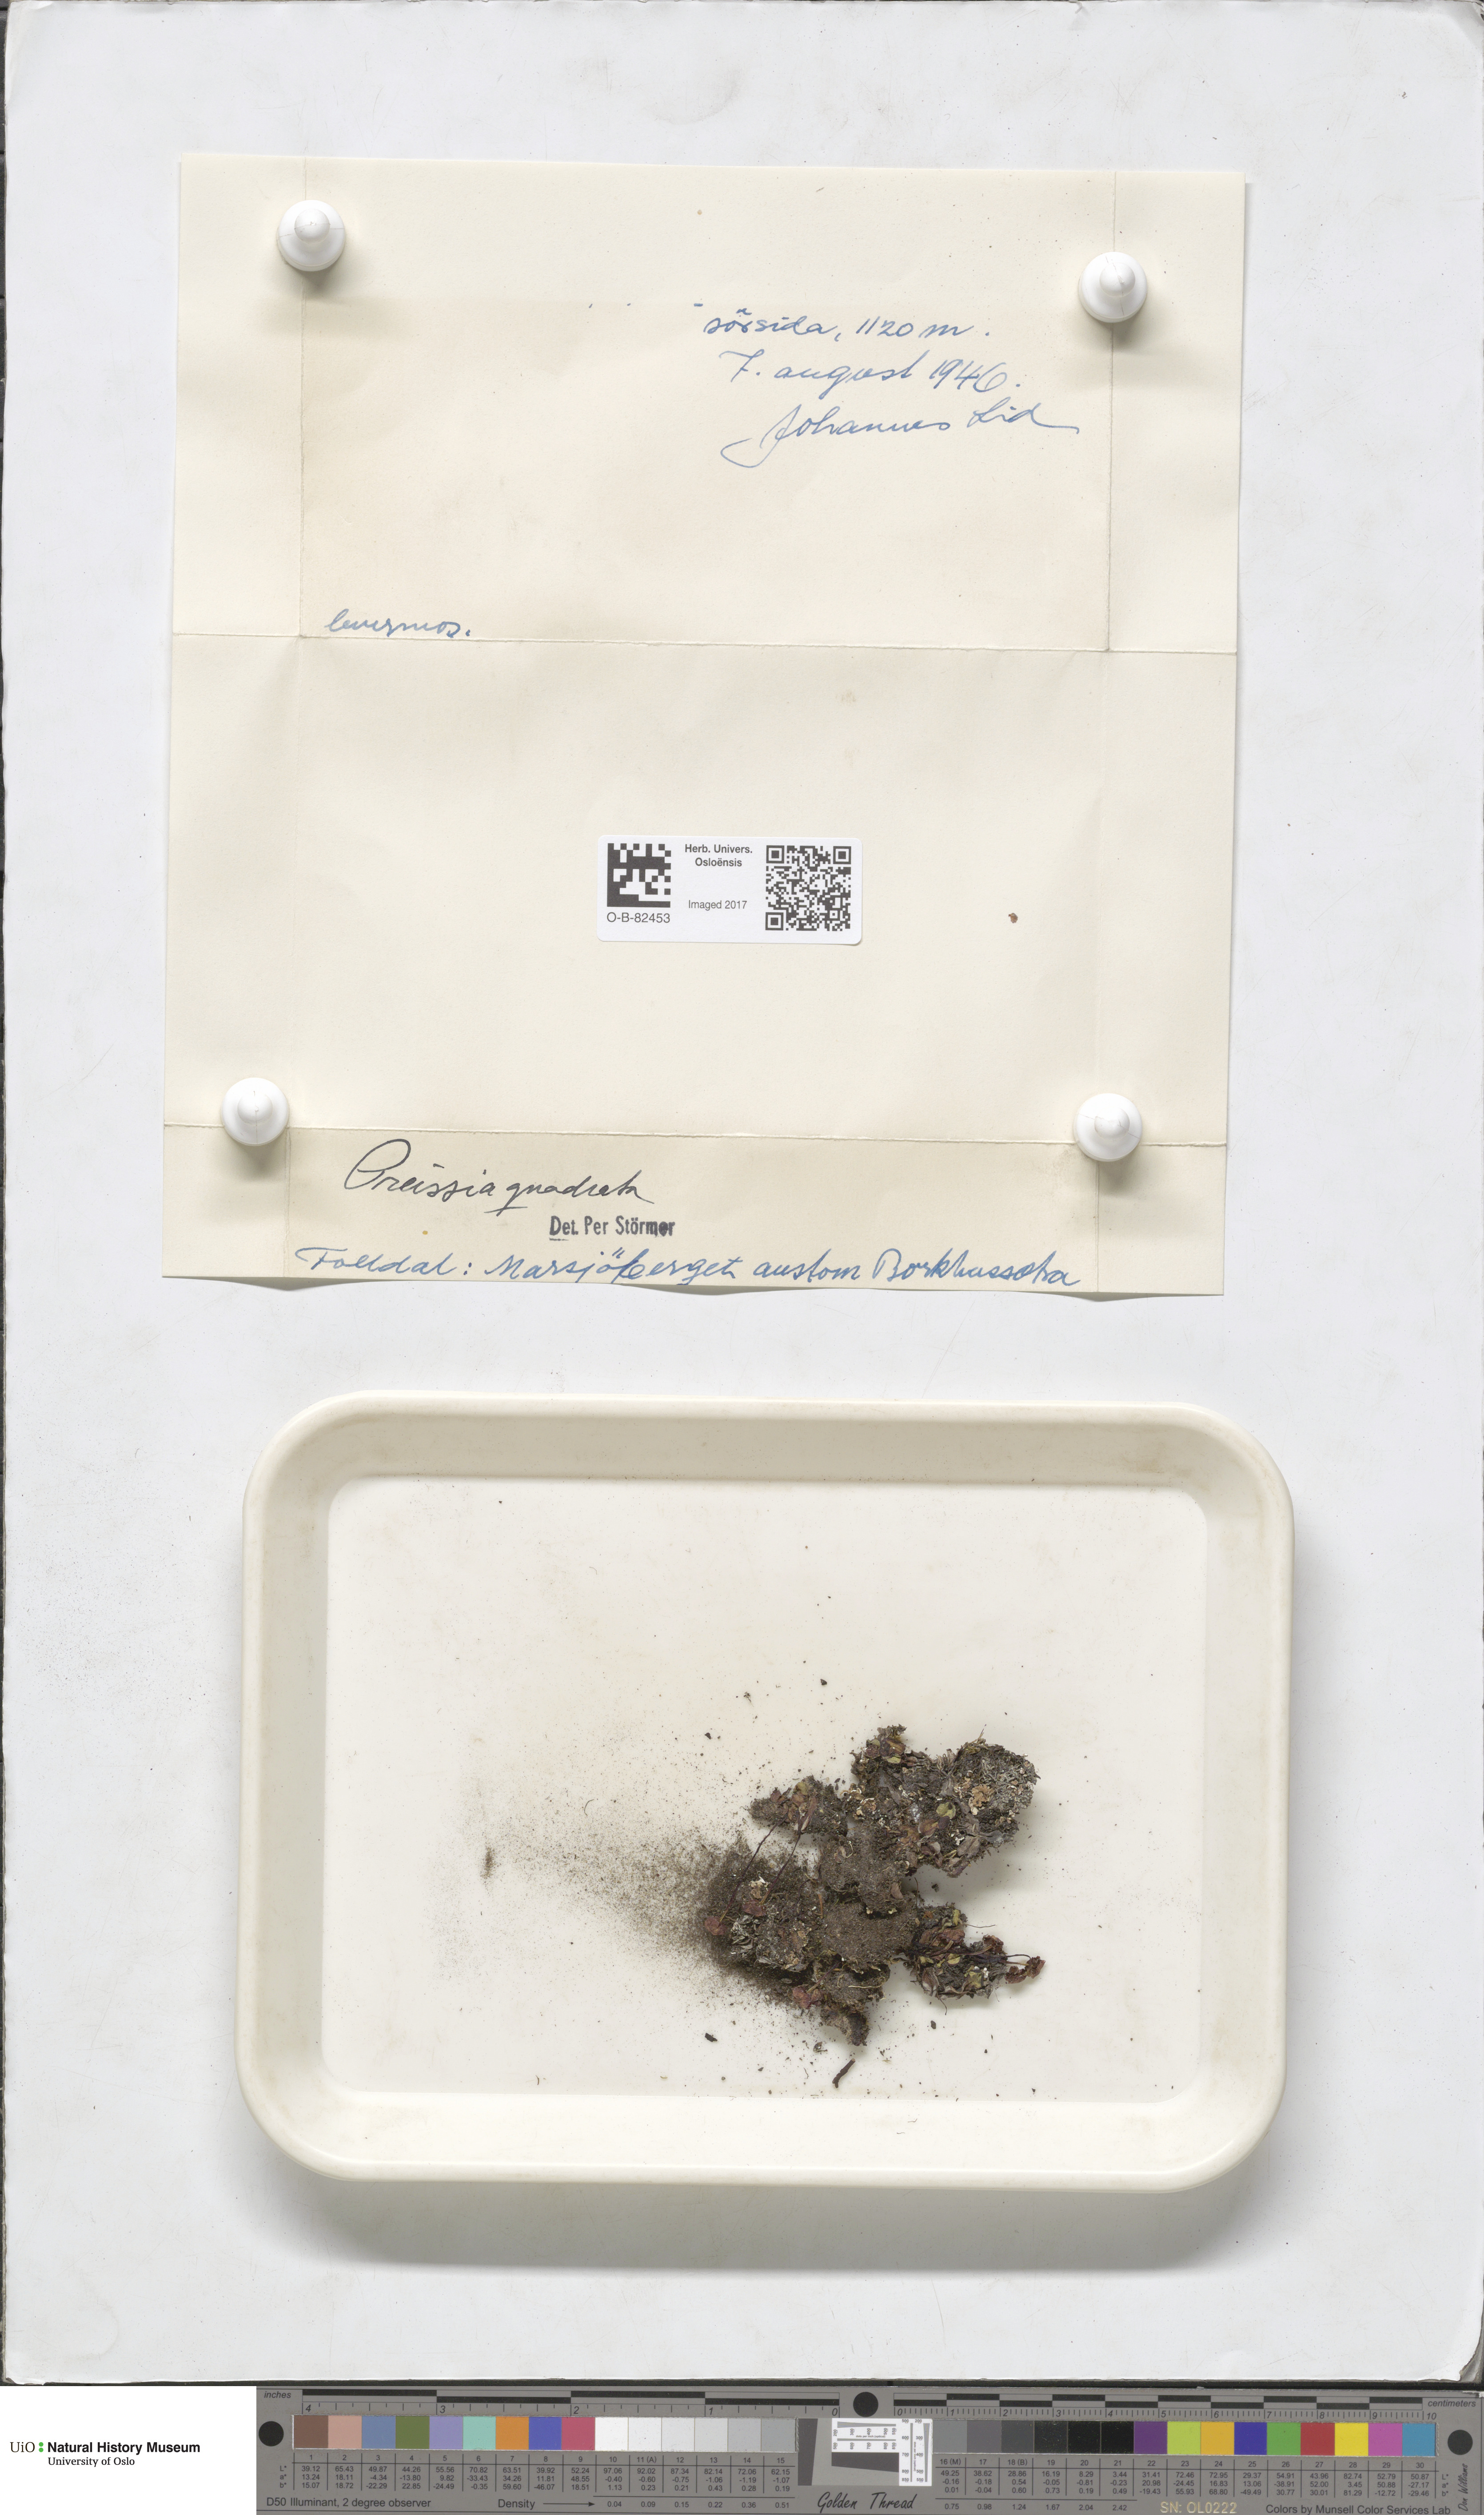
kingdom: Plantae
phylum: Marchantiophyta
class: Marchantiopsida
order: Marchantiales
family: Marchantiaceae
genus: Marchantia
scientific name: Marchantia quadrata
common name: Narrow mushroom-headed liverwort
